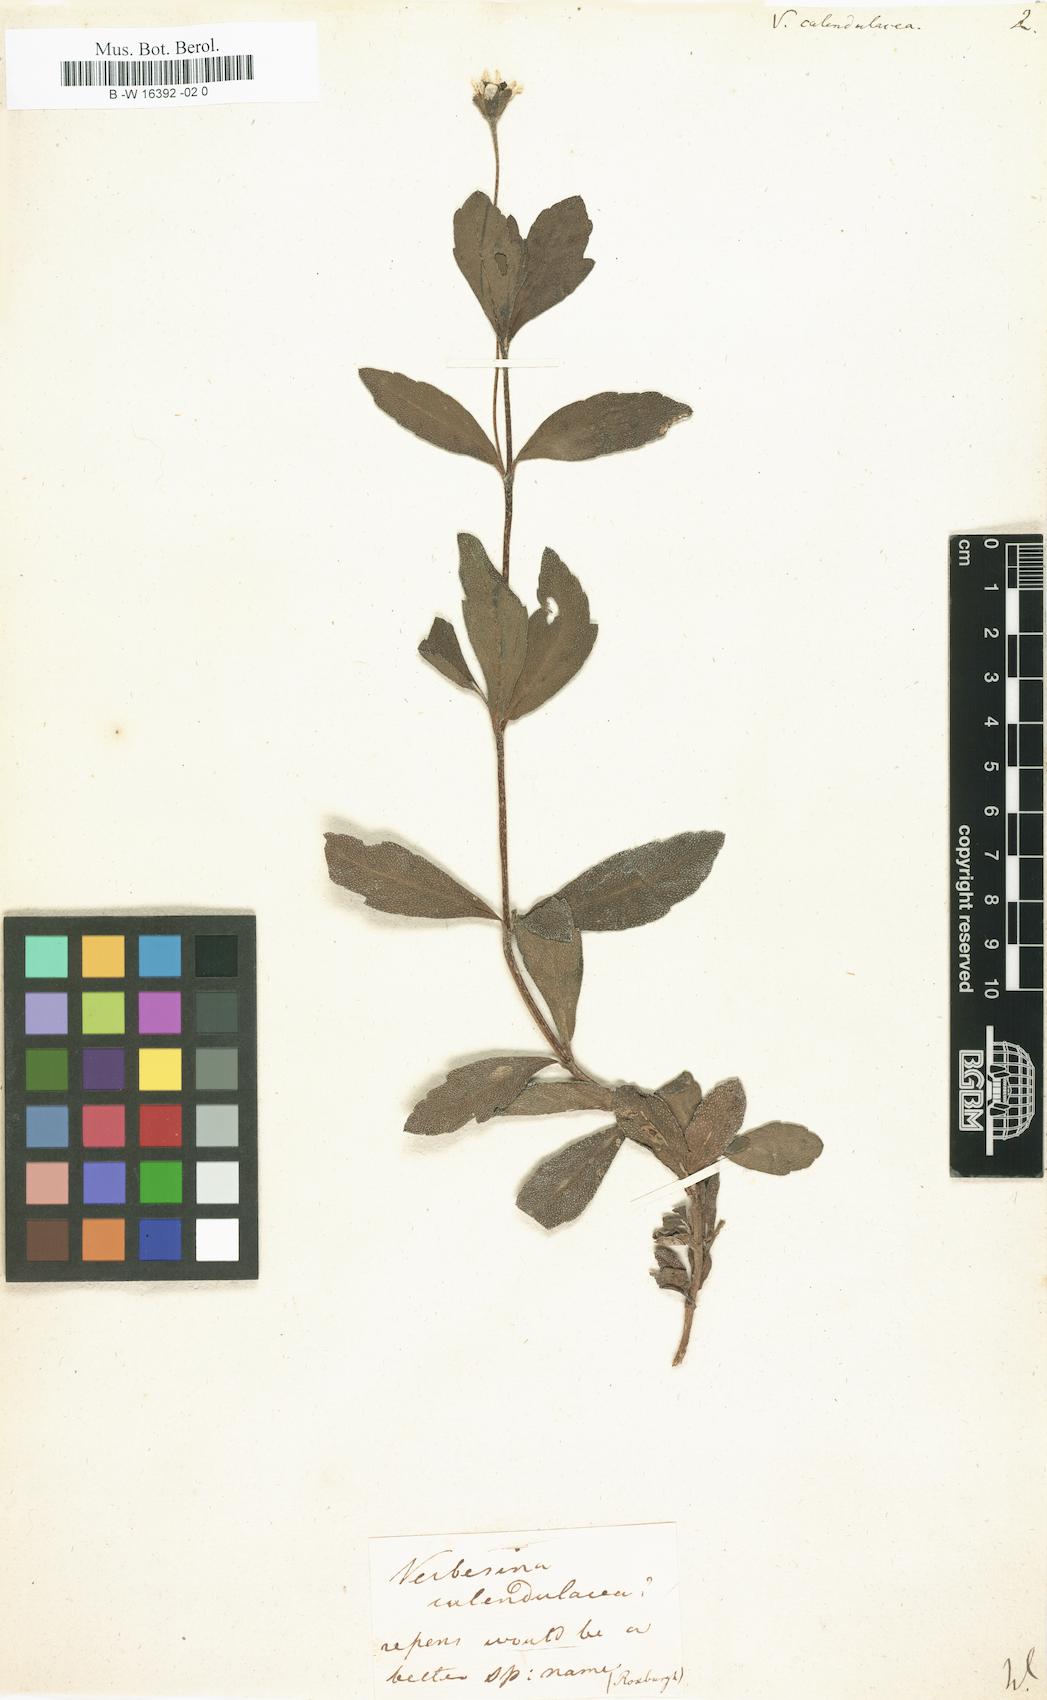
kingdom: Plantae
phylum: Tracheophyta
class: Magnoliopsida
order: Asterales
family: Asteraceae
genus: Sphagneticola
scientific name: Sphagneticola calendulacea
